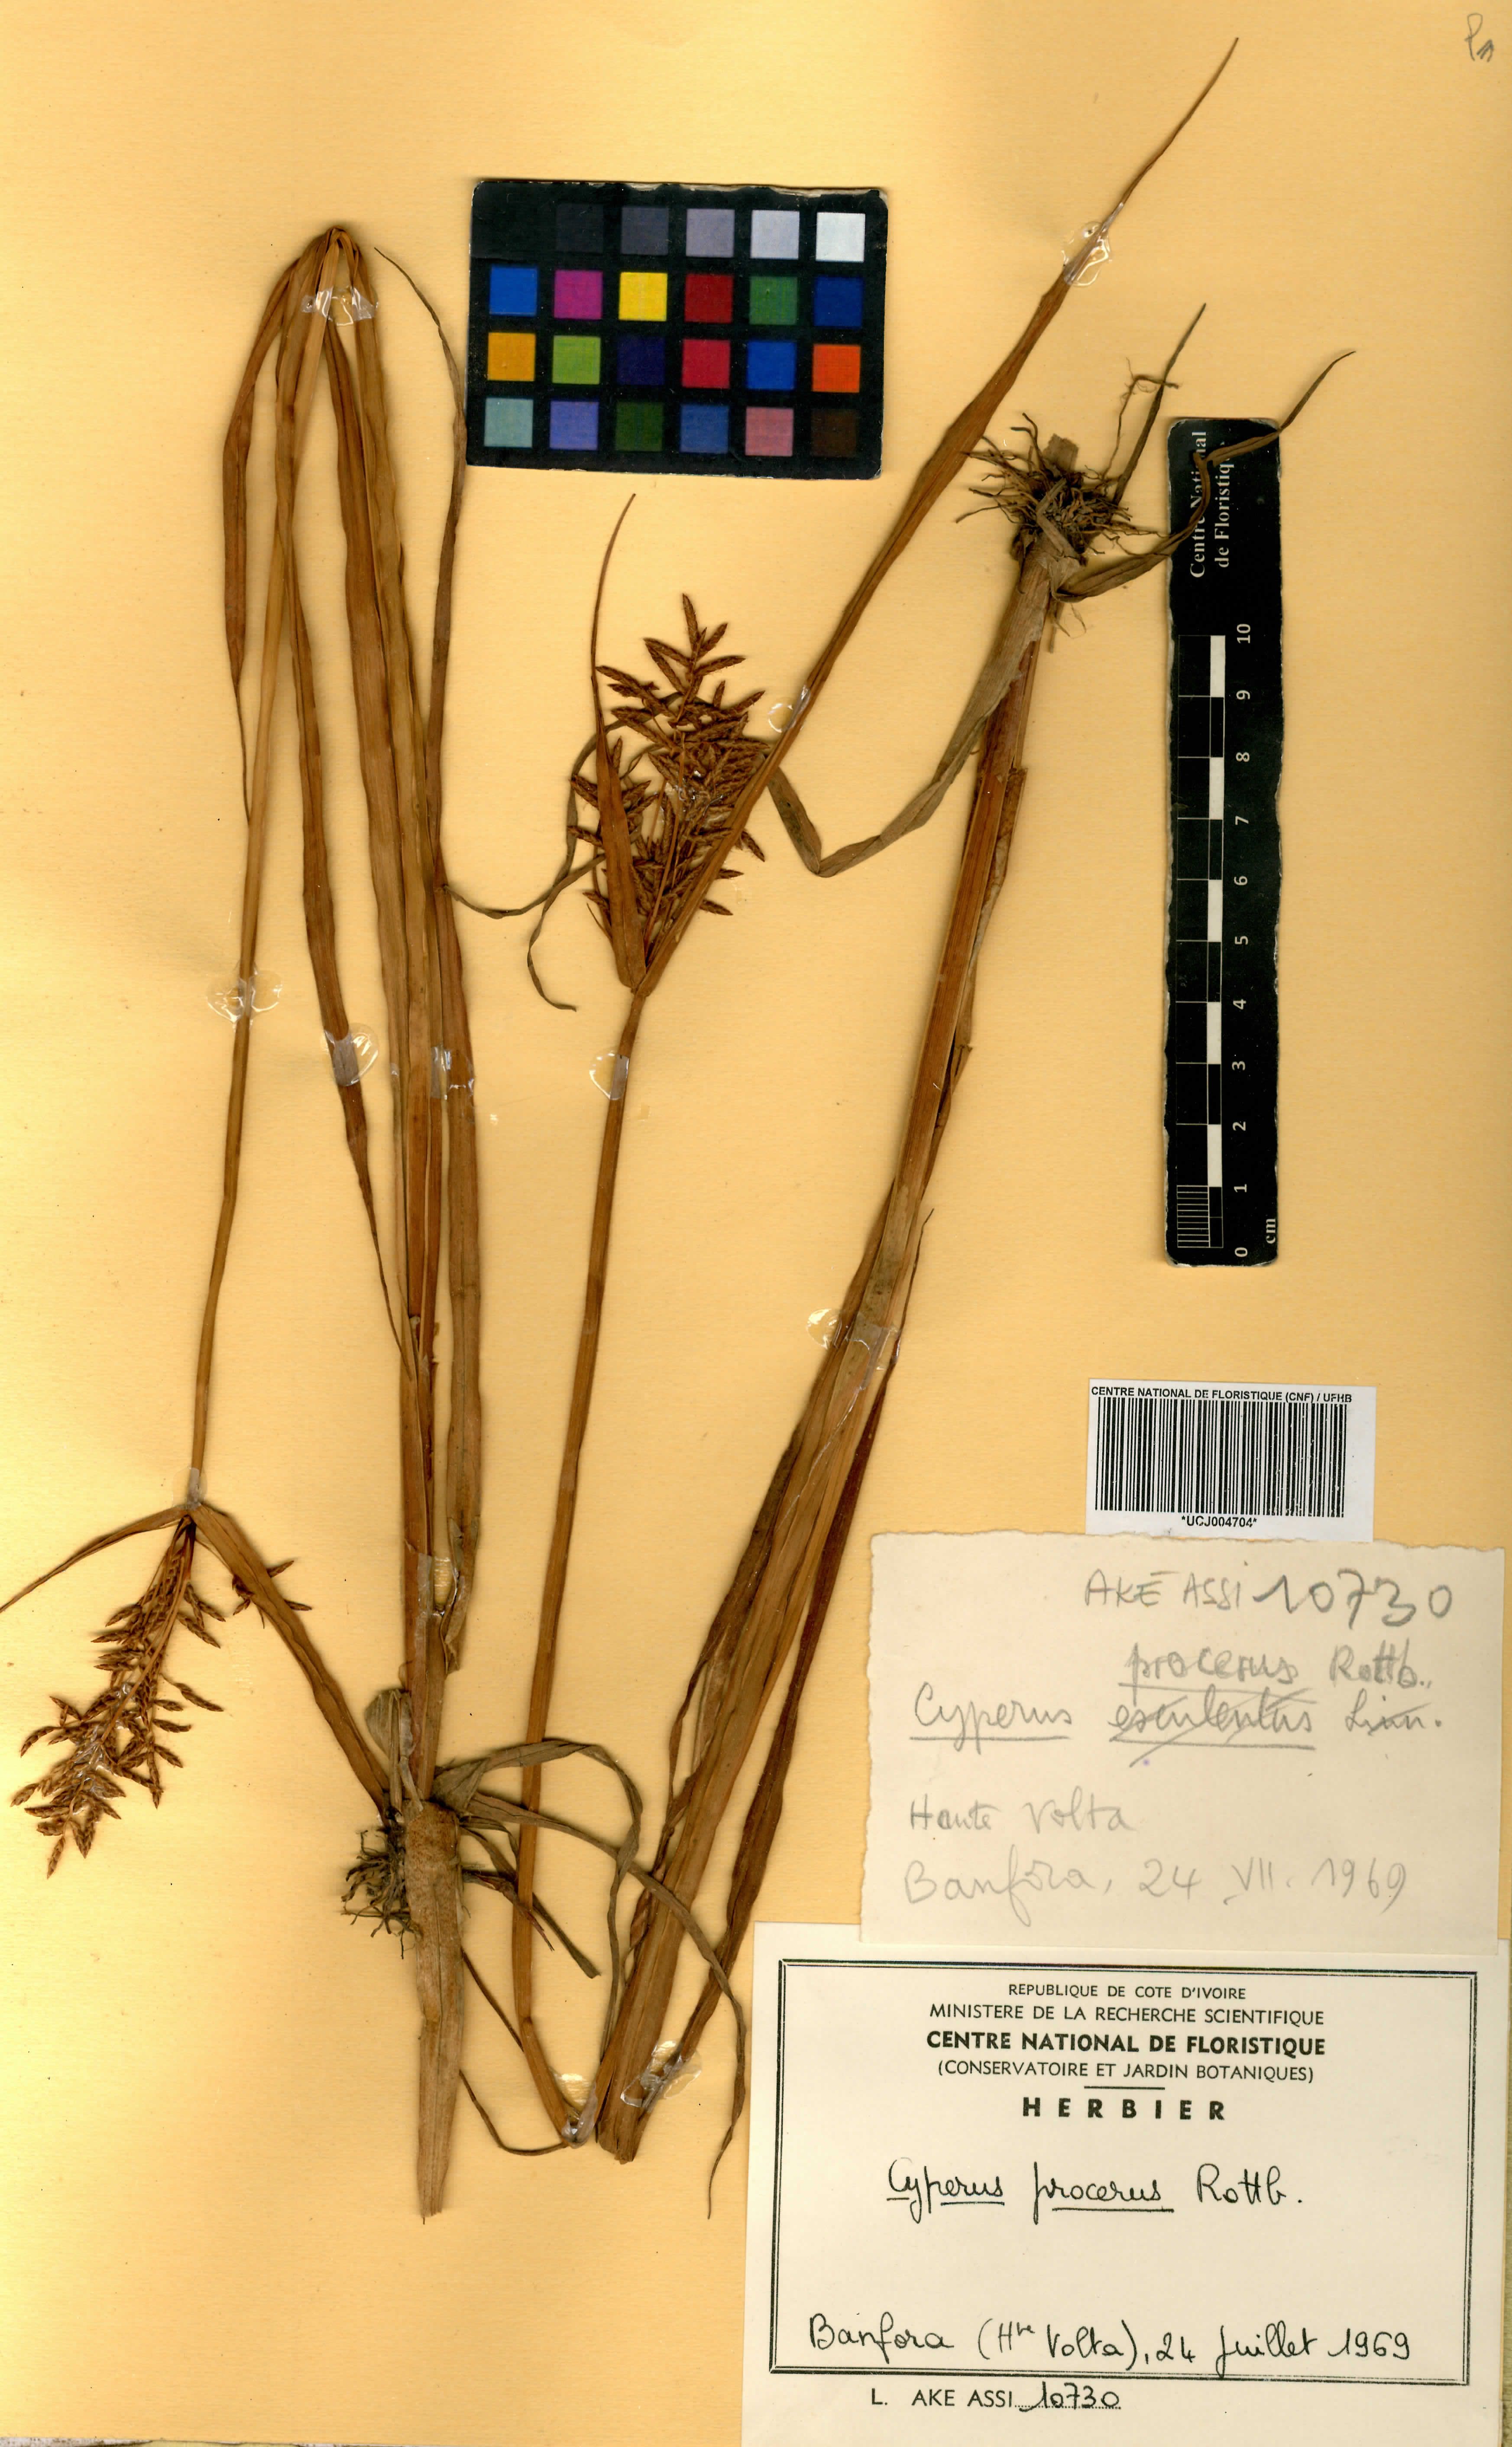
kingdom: Plantae
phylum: Tracheophyta
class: Liliopsida
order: Poales
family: Cyperaceae
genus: Cyperus
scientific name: Cyperus procerus
